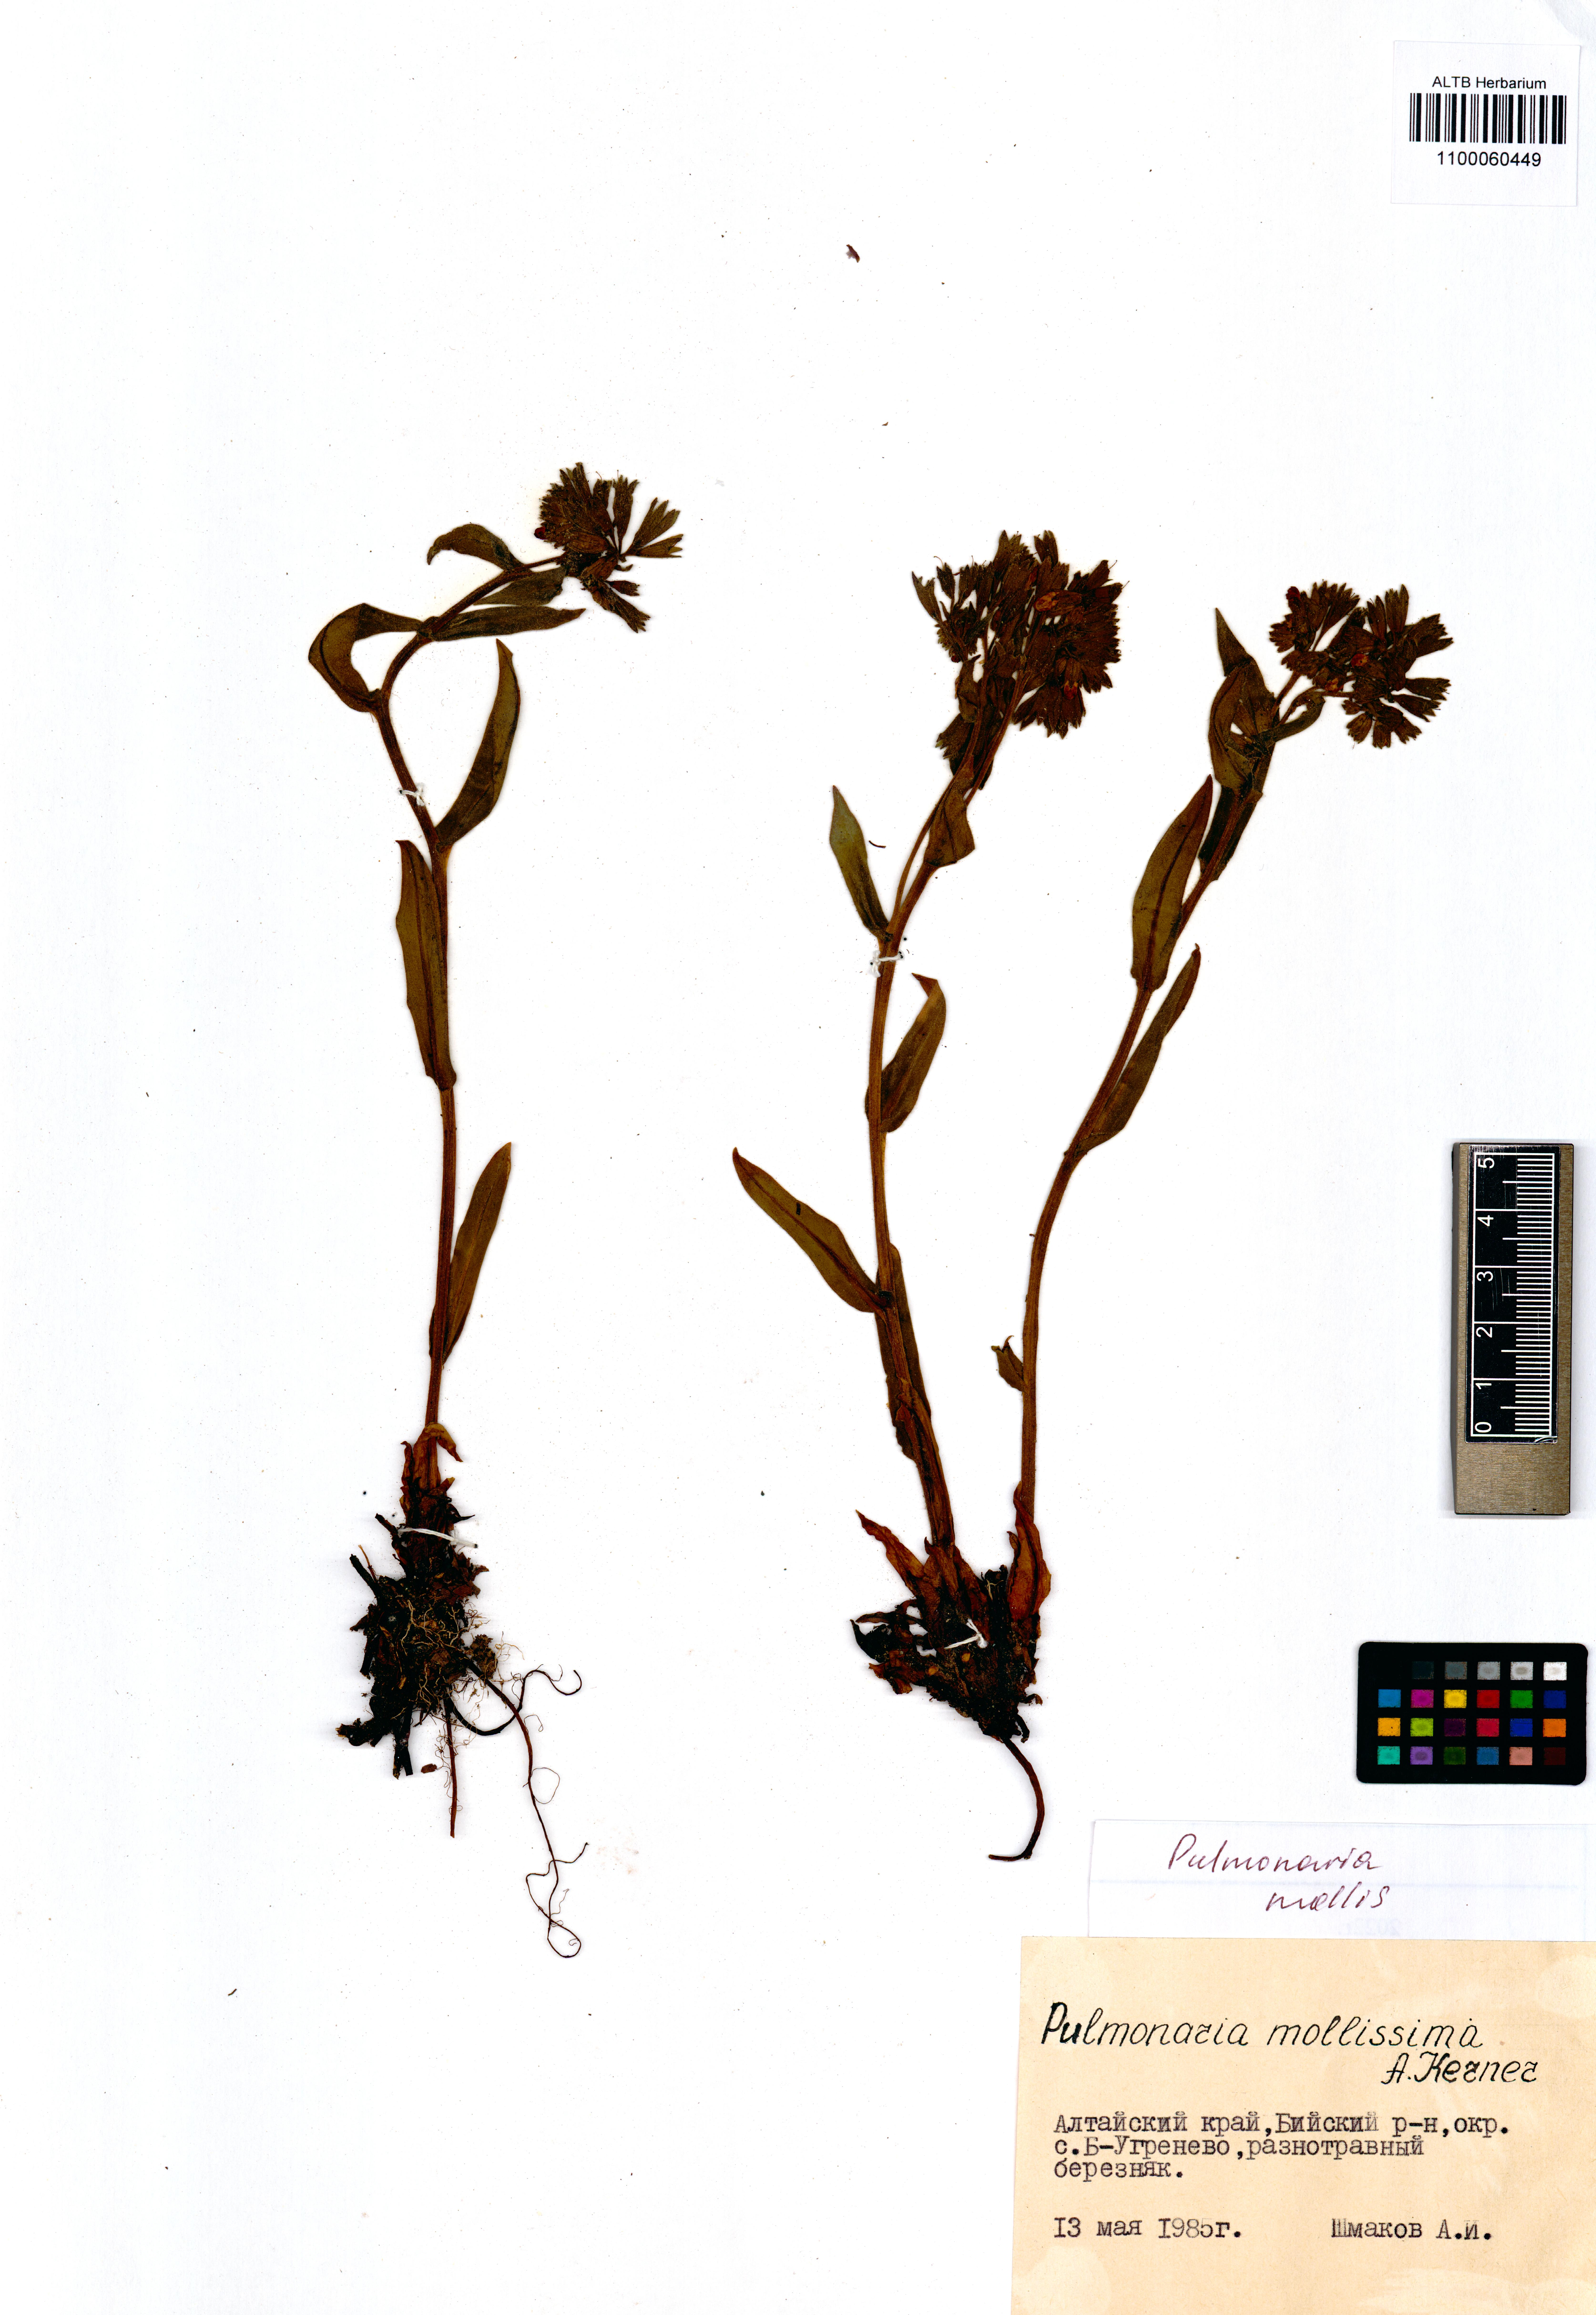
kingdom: Plantae
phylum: Tracheophyta
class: Magnoliopsida
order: Boraginales
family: Boraginaceae
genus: Pulmonaria
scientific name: Pulmonaria mollis
